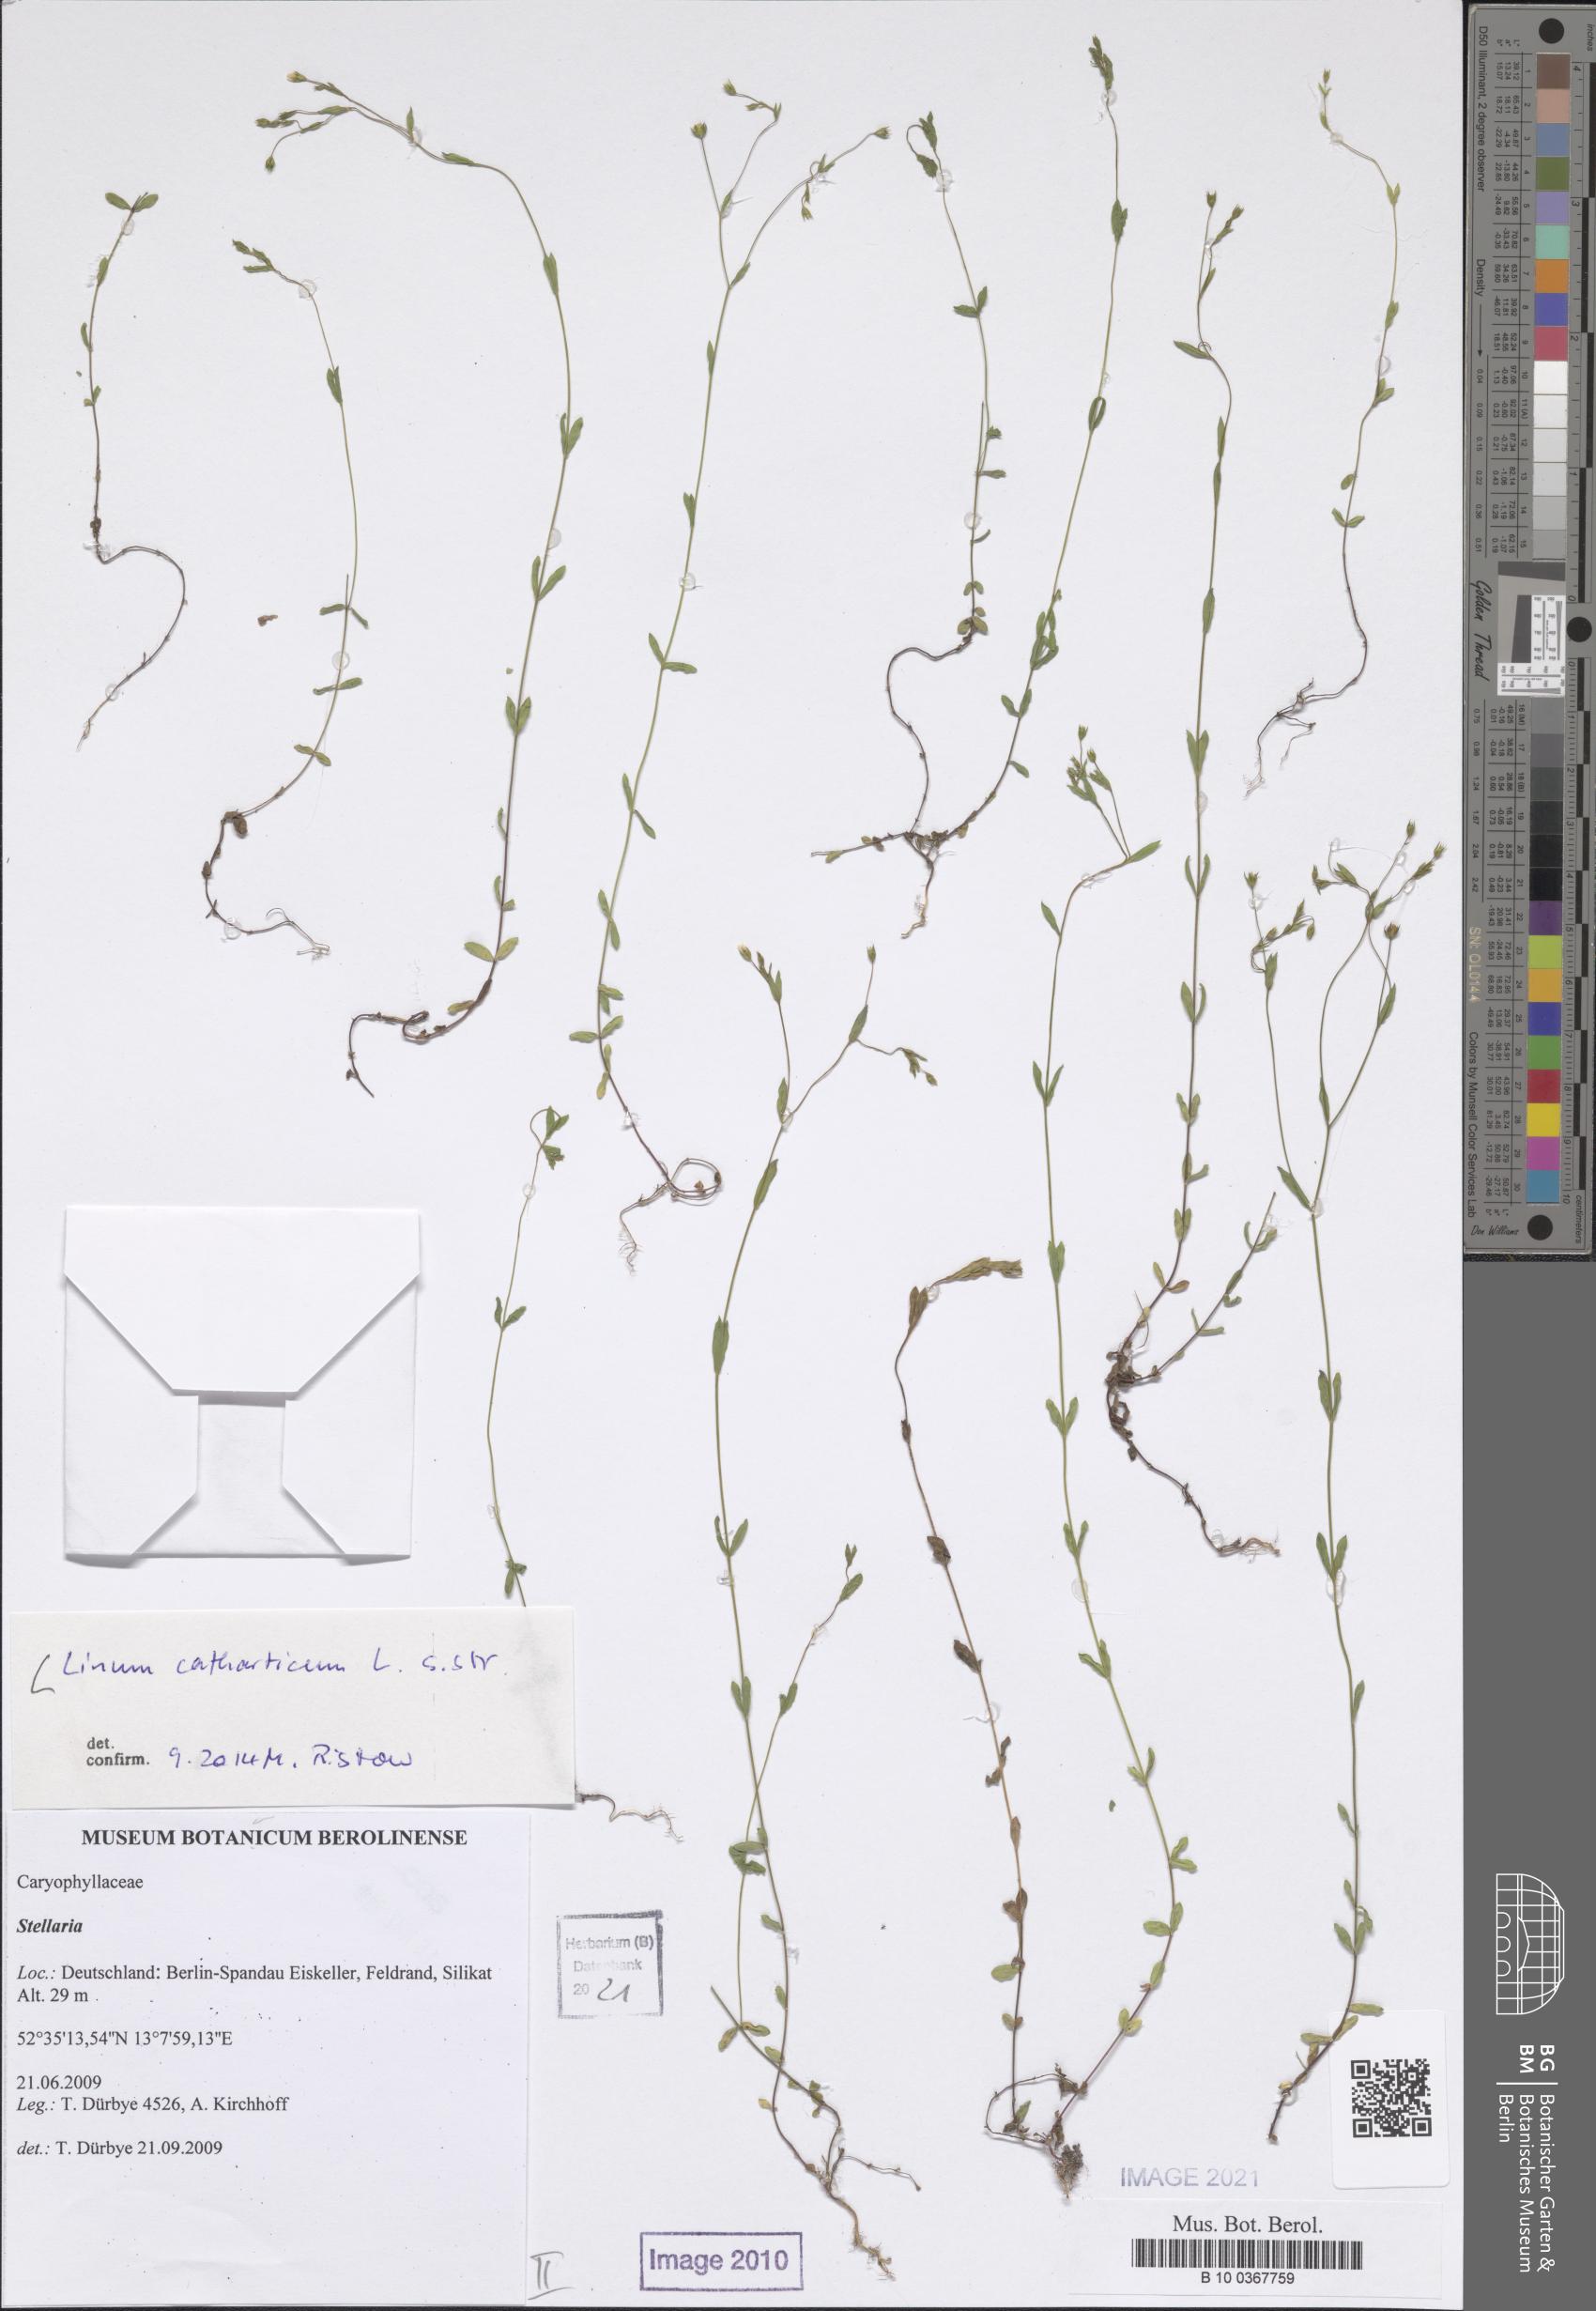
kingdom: Plantae
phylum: Tracheophyta
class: Magnoliopsida
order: Malpighiales
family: Linaceae
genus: Linum
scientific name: Linum catharticum
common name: Fairy flax
